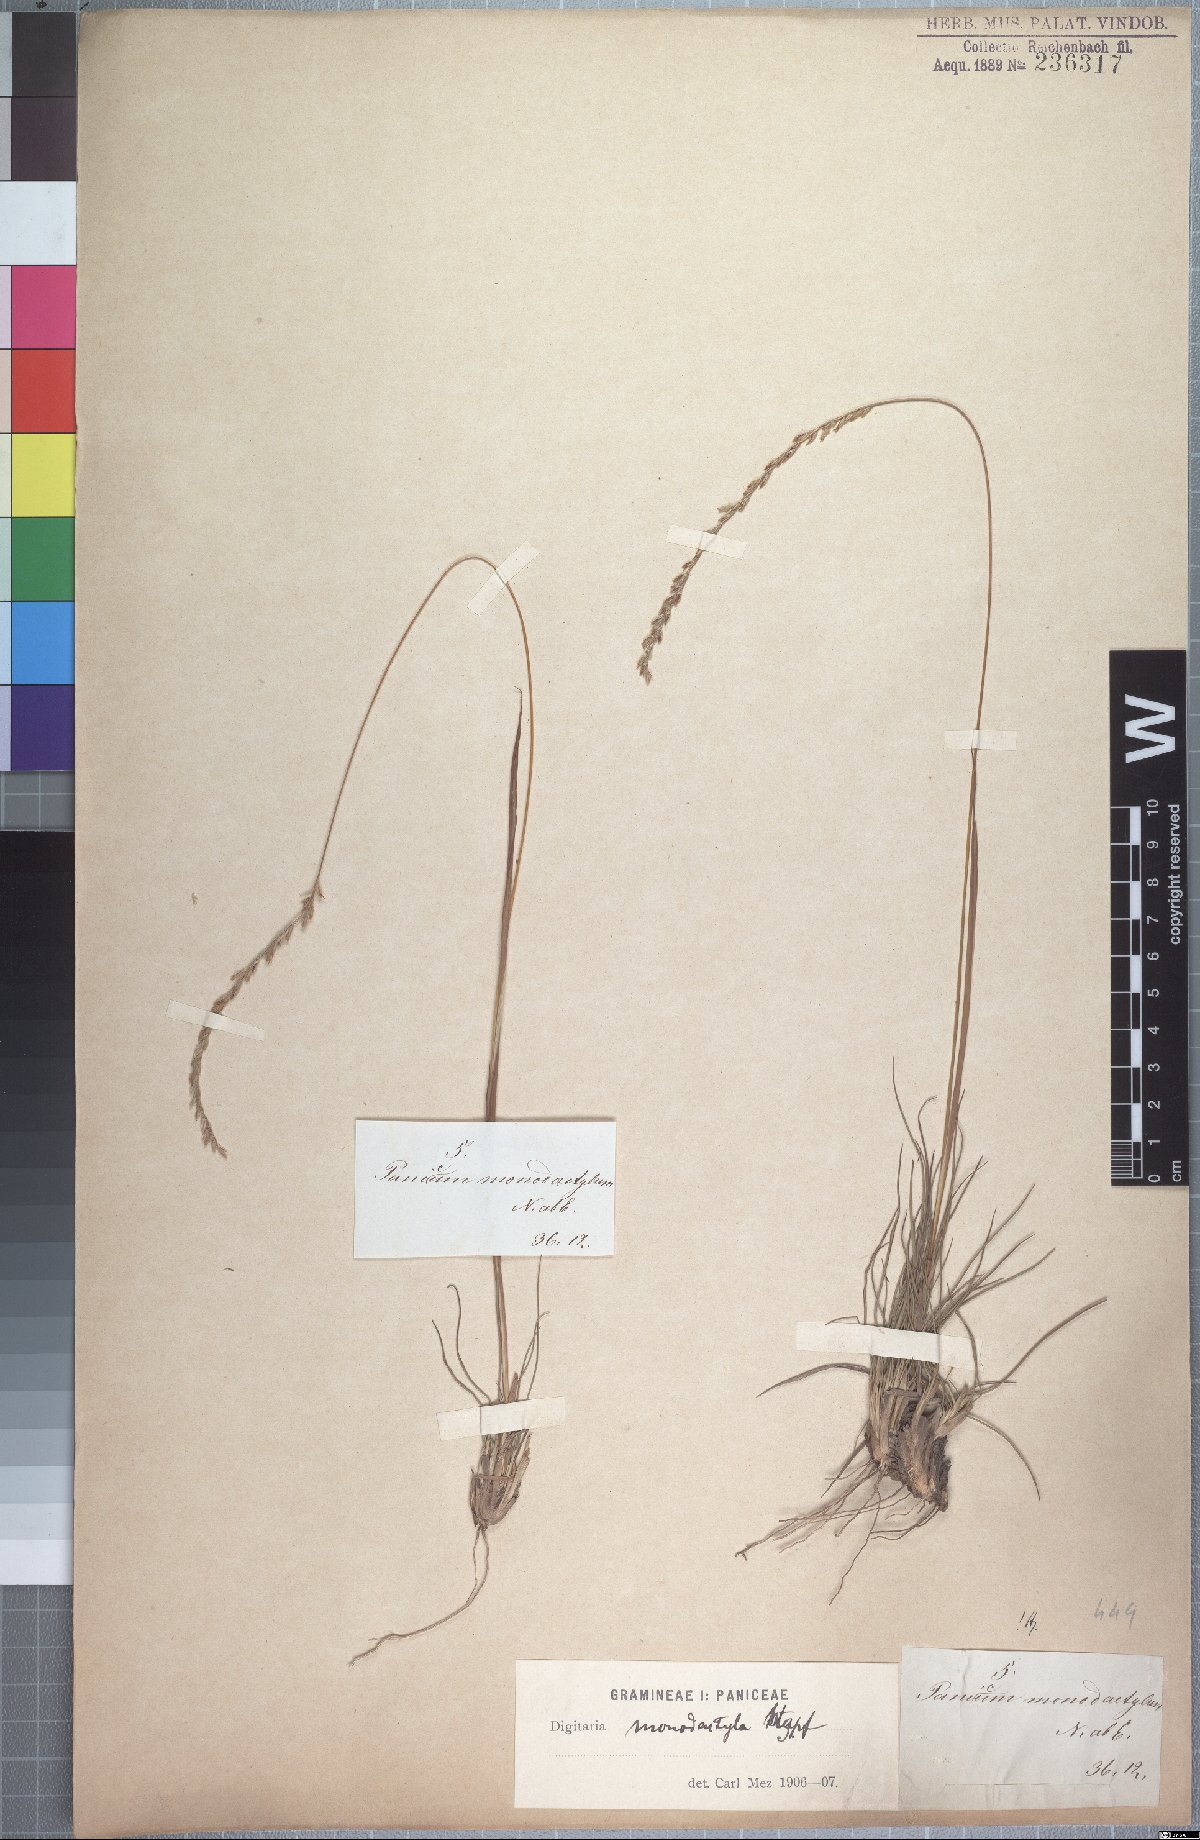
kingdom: Plantae
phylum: Tracheophyta
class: Liliopsida
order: Poales
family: Poaceae
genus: Digitaria
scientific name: Digitaria monodactyla
